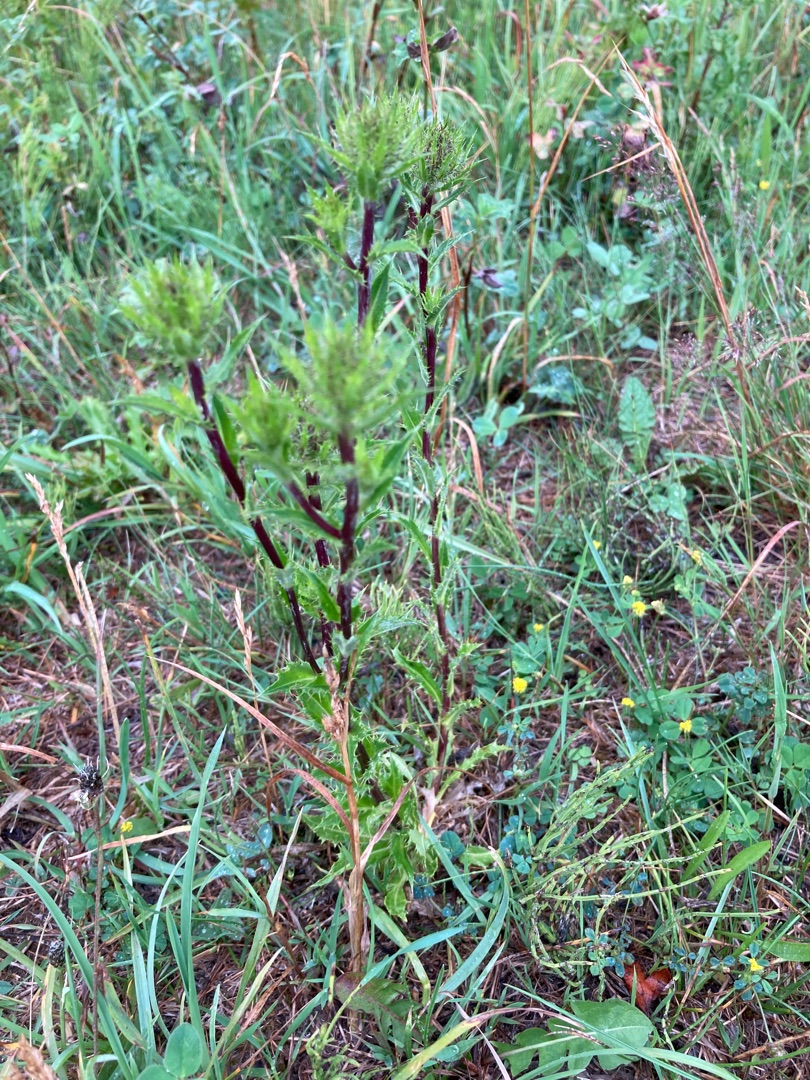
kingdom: Plantae
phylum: Tracheophyta
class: Magnoliopsida
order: Asterales
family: Asteraceae
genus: Carlina
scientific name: Carlina vulgaris
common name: Bakketidsel
